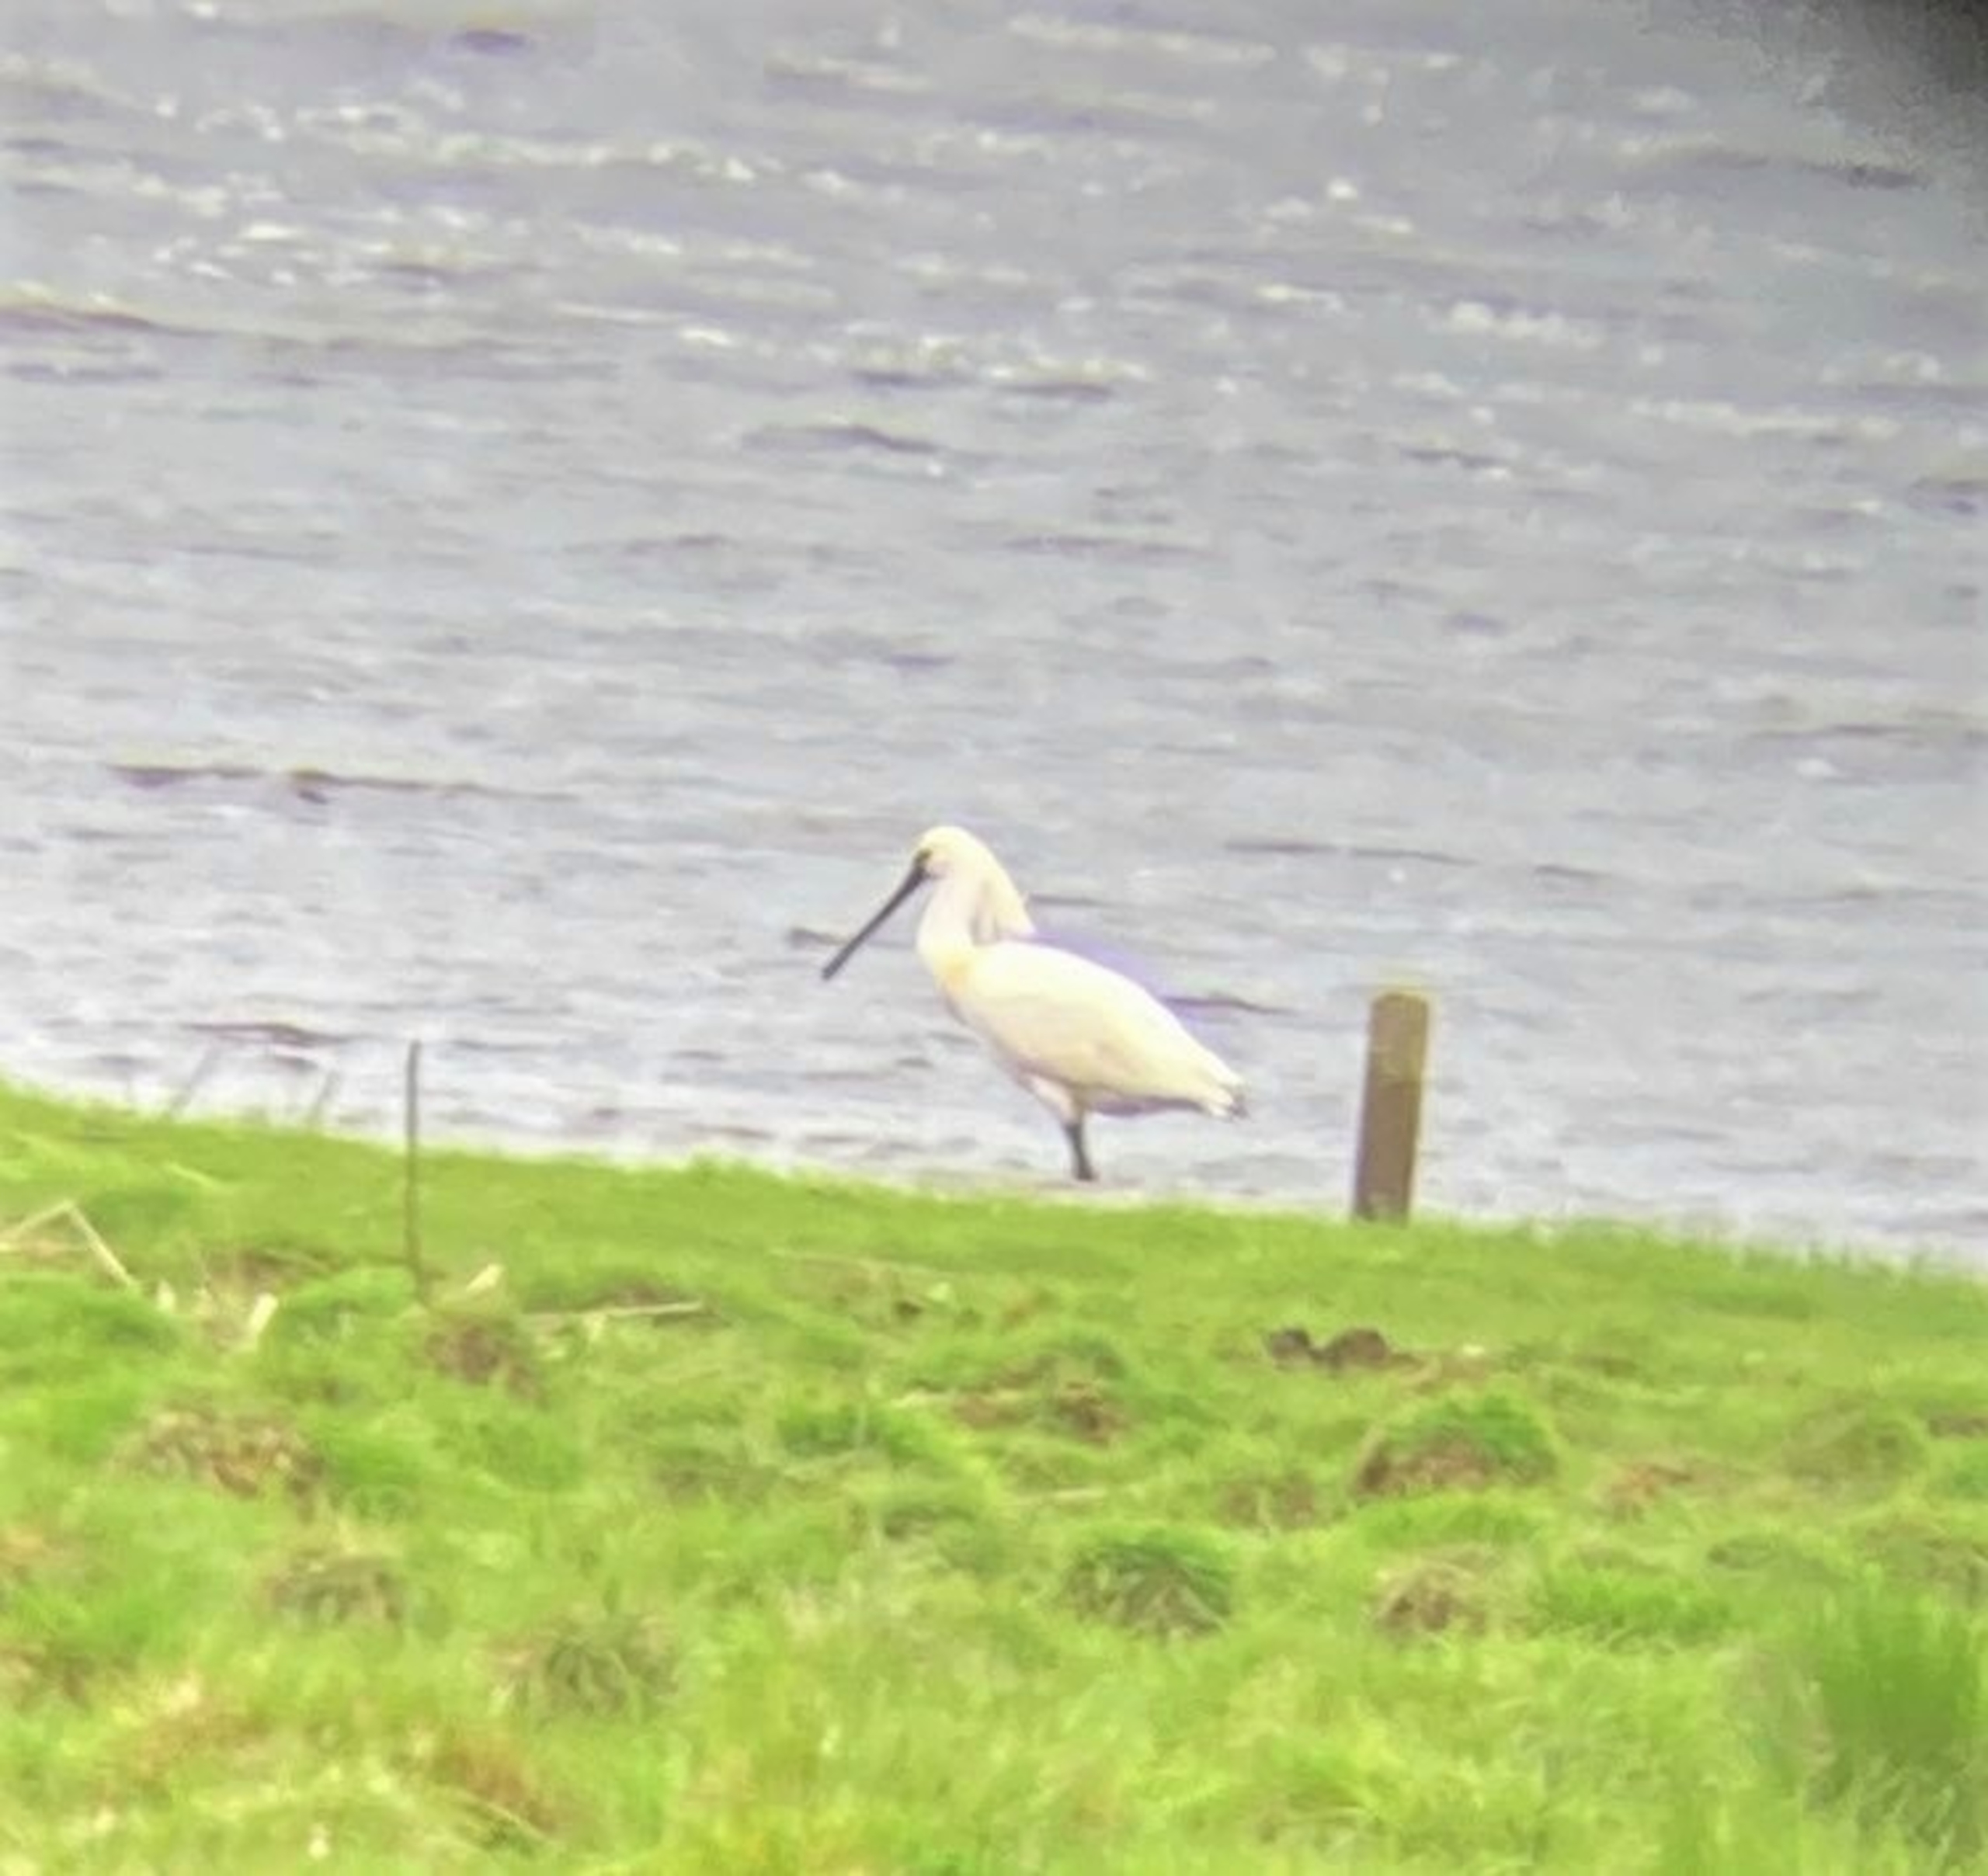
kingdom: Animalia
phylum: Chordata
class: Aves
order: Pelecaniformes
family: Threskiornithidae
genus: Platalea
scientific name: Platalea leucorodia
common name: Skestork
